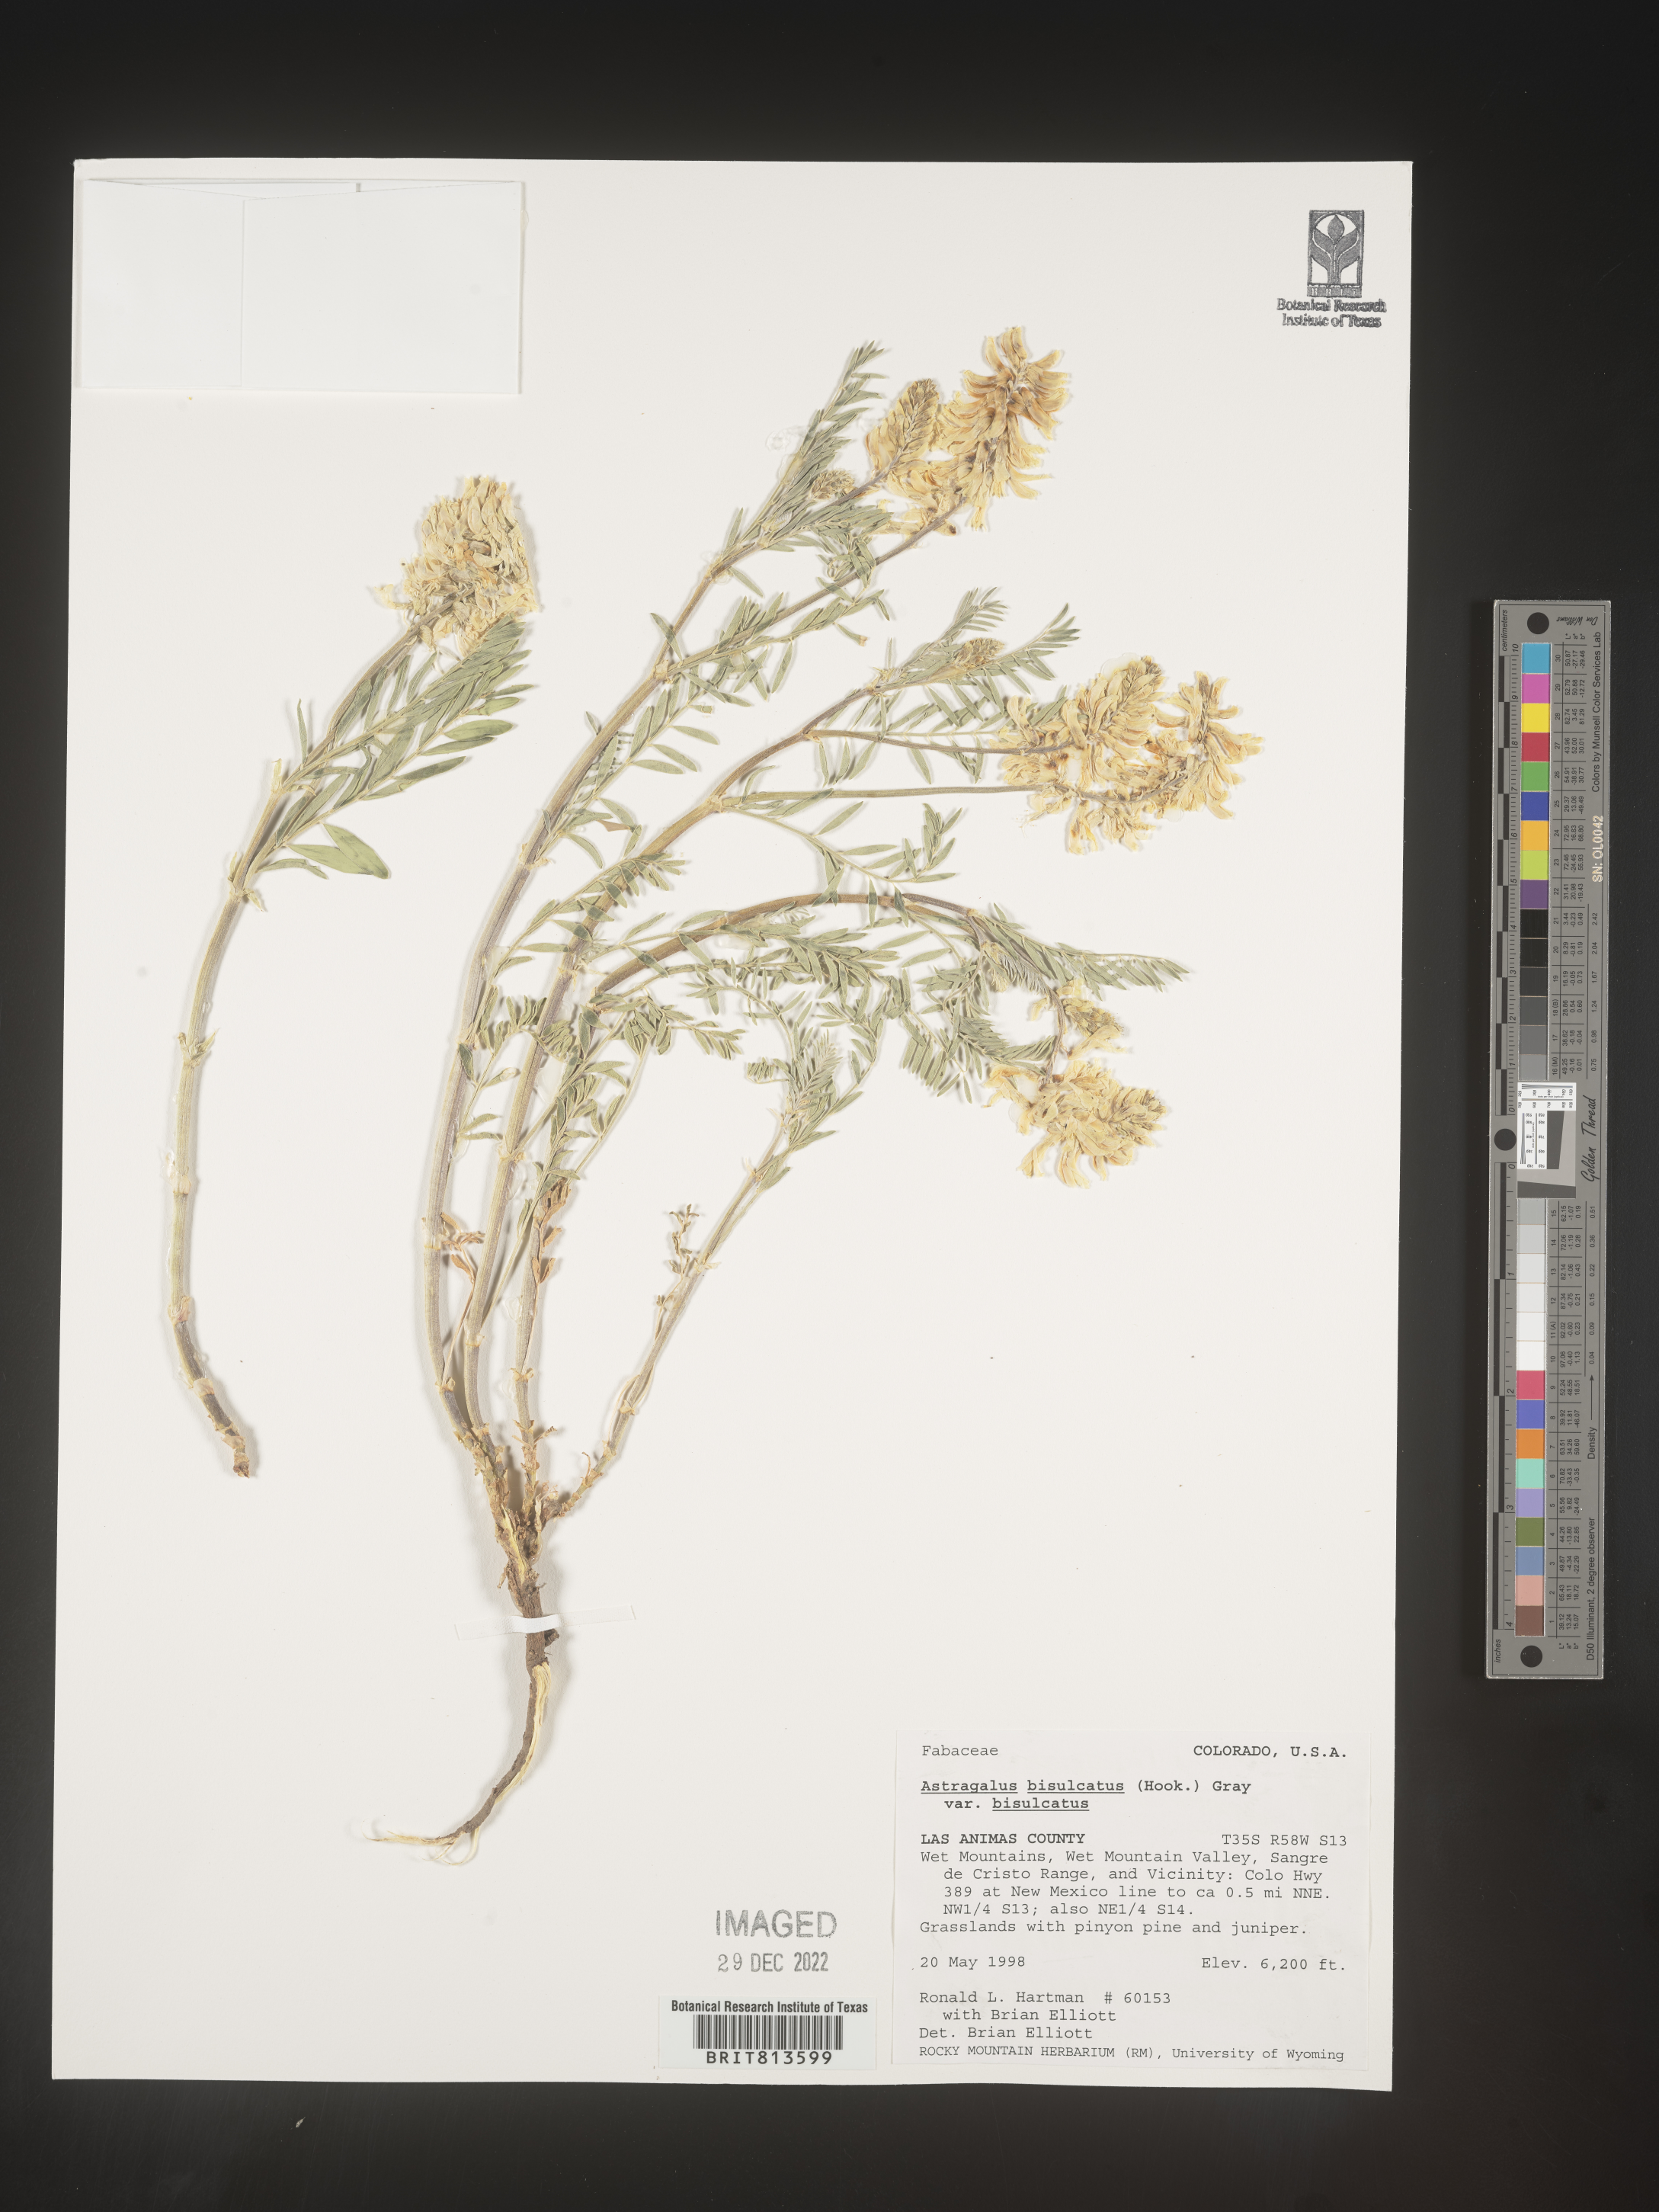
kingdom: Plantae
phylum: Tracheophyta
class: Magnoliopsida
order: Fabales
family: Fabaceae
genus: Astragalus
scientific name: Astragalus bisulcatus
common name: Two-groove milk-vetch
